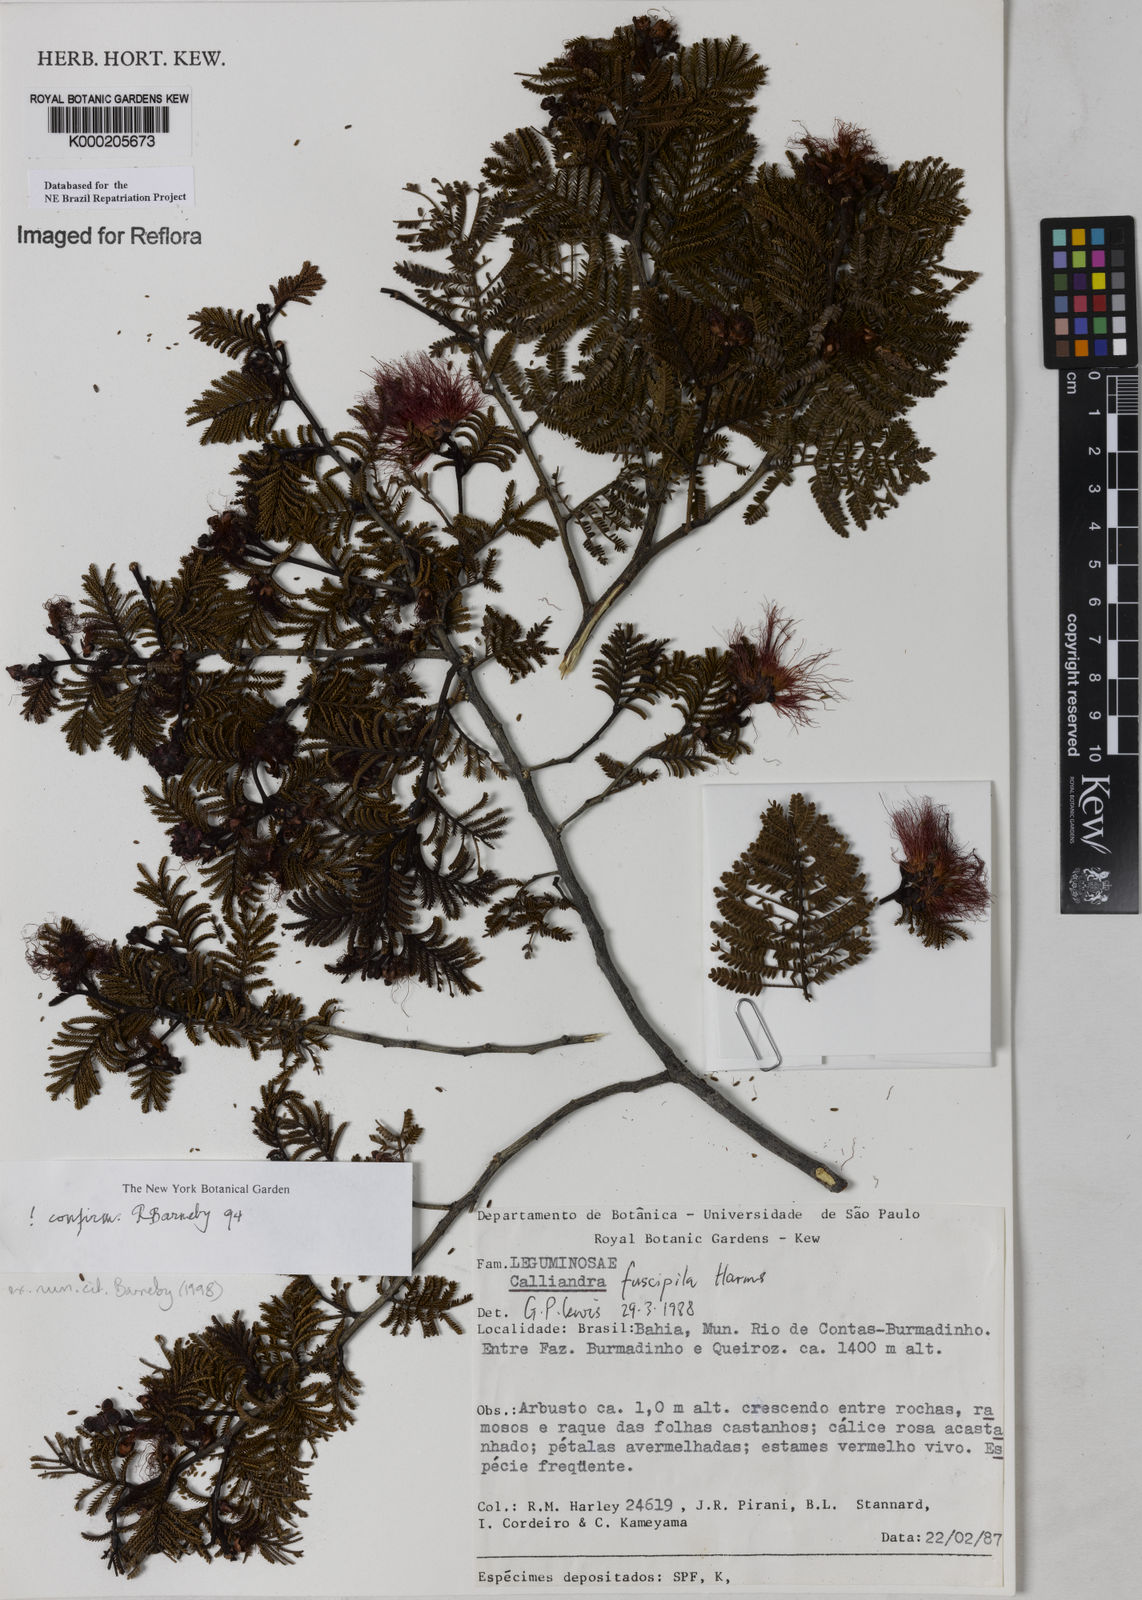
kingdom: Plantae
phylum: Tracheophyta
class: Magnoliopsida
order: Fabales
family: Fabaceae
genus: Calliandra
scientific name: Calliandra fuscipila
